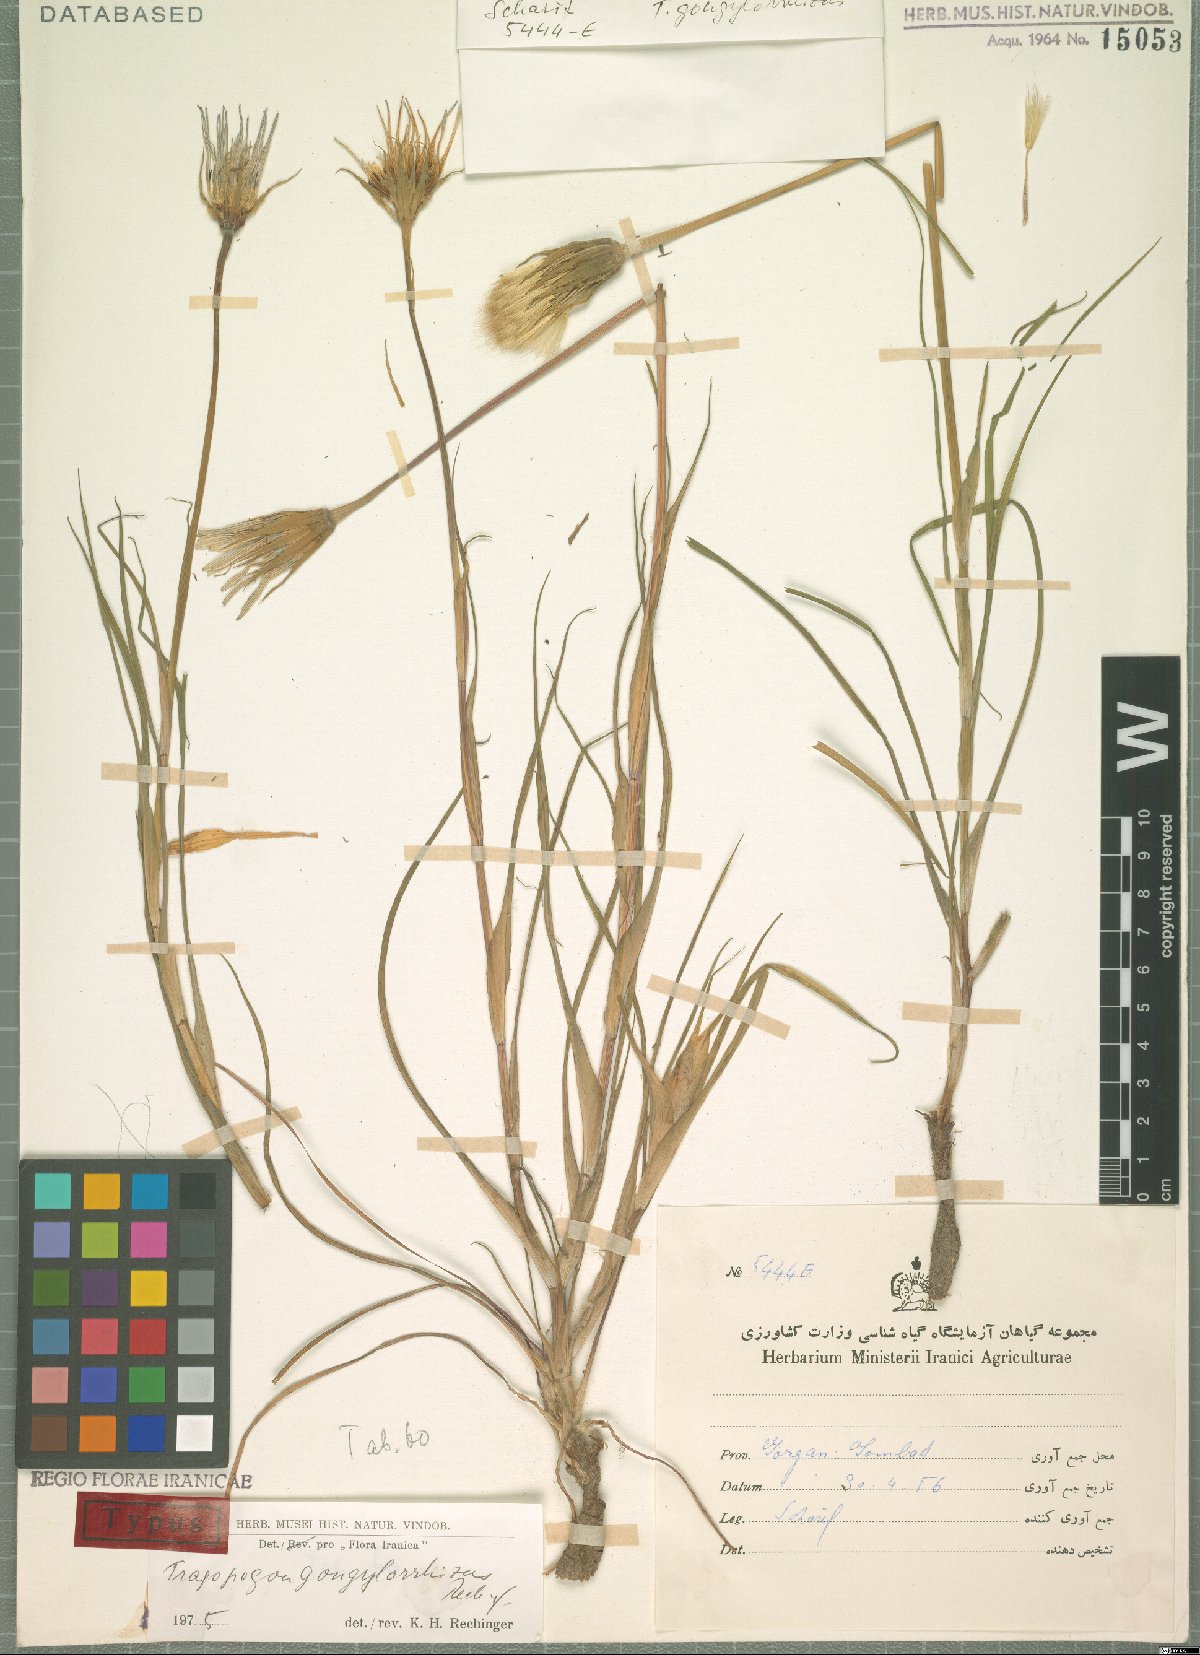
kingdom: Plantae
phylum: Tracheophyta
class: Magnoliopsida
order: Asterales
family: Asteraceae
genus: Tragopogon
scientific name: Tragopogon gongylorrhizus
